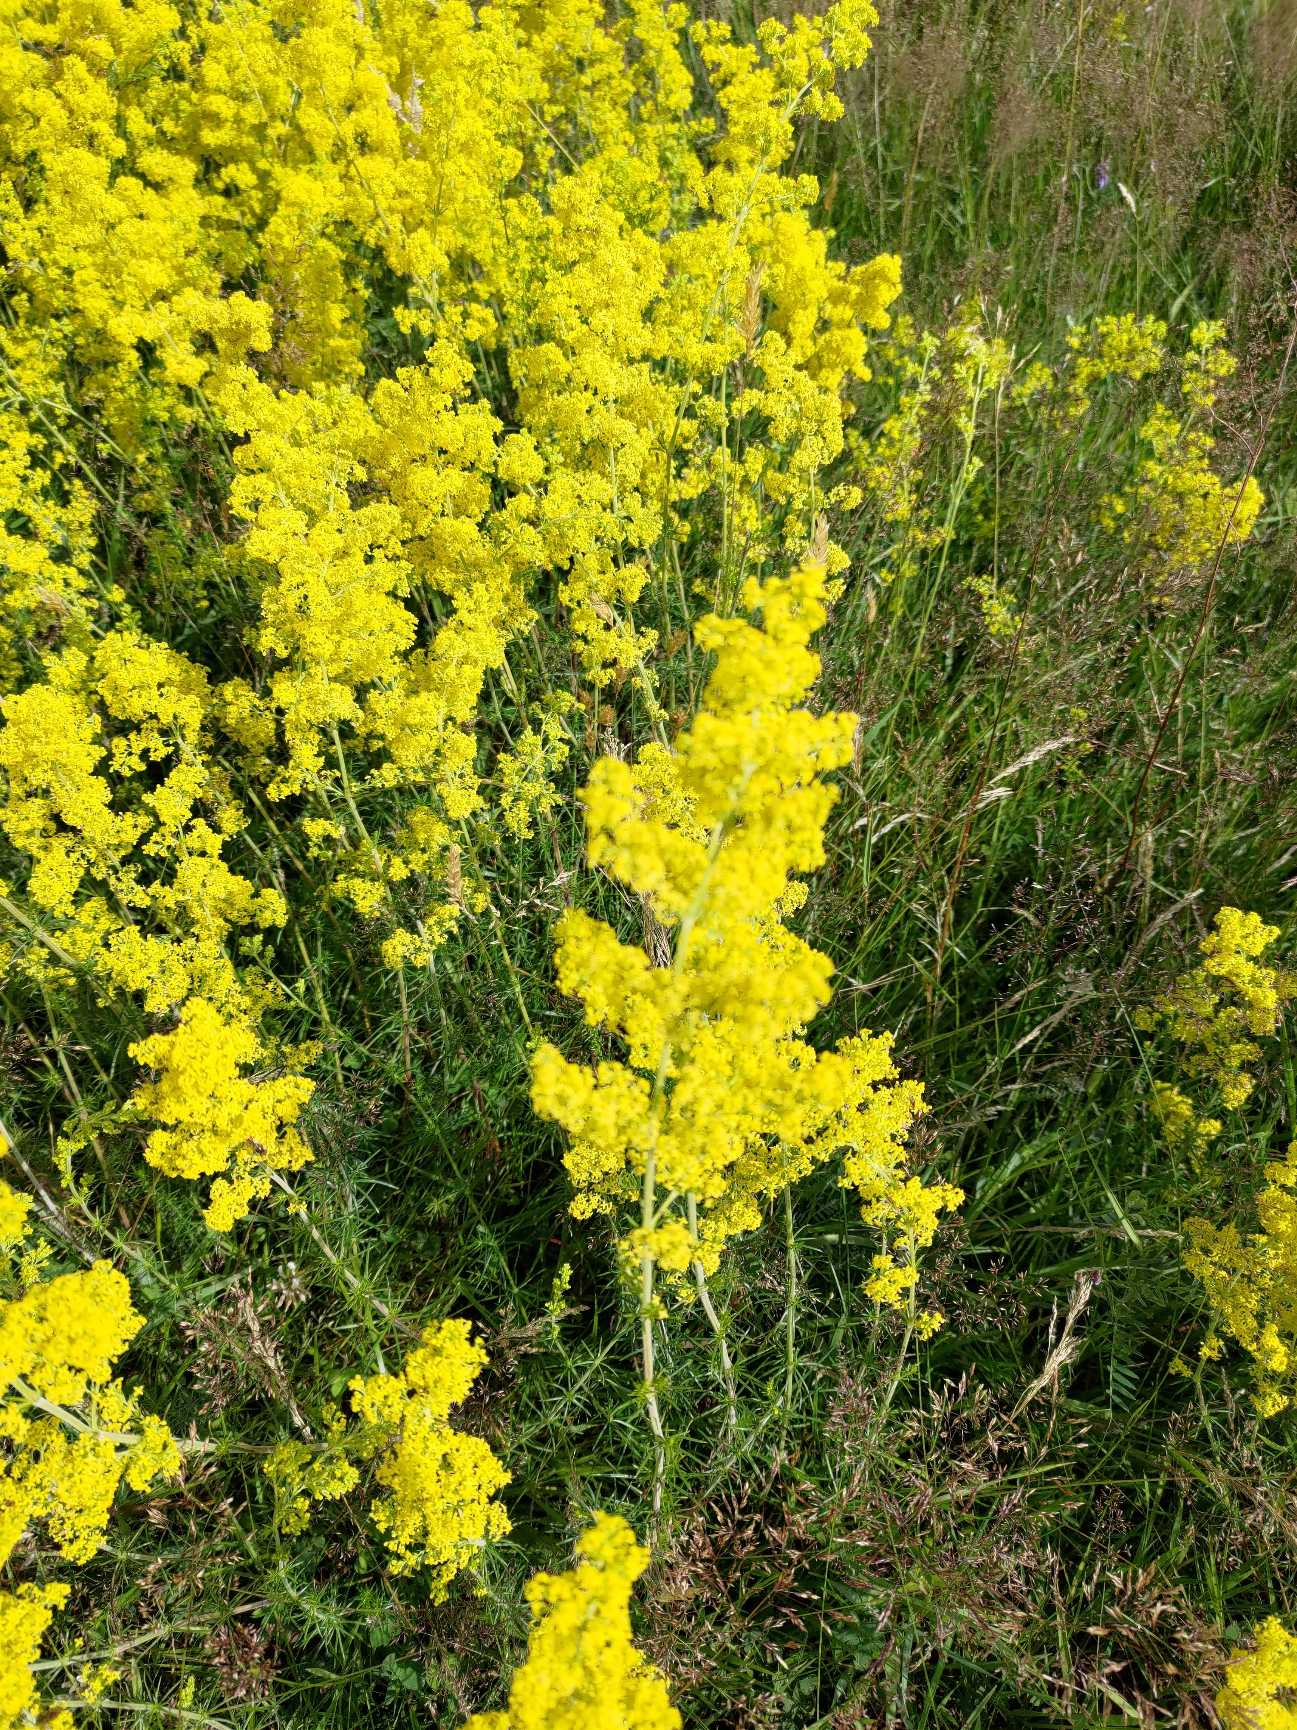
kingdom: Plantae
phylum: Tracheophyta
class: Magnoliopsida
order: Gentianales
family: Rubiaceae
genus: Galium
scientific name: Galium verum
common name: Gul snerre
